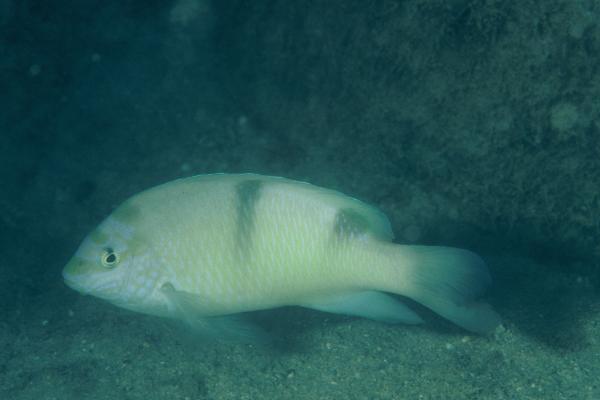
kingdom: Animalia
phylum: Chordata
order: Perciformes
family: Pomacentridae
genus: Dischistodus
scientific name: Dischistodus perspicillatus
